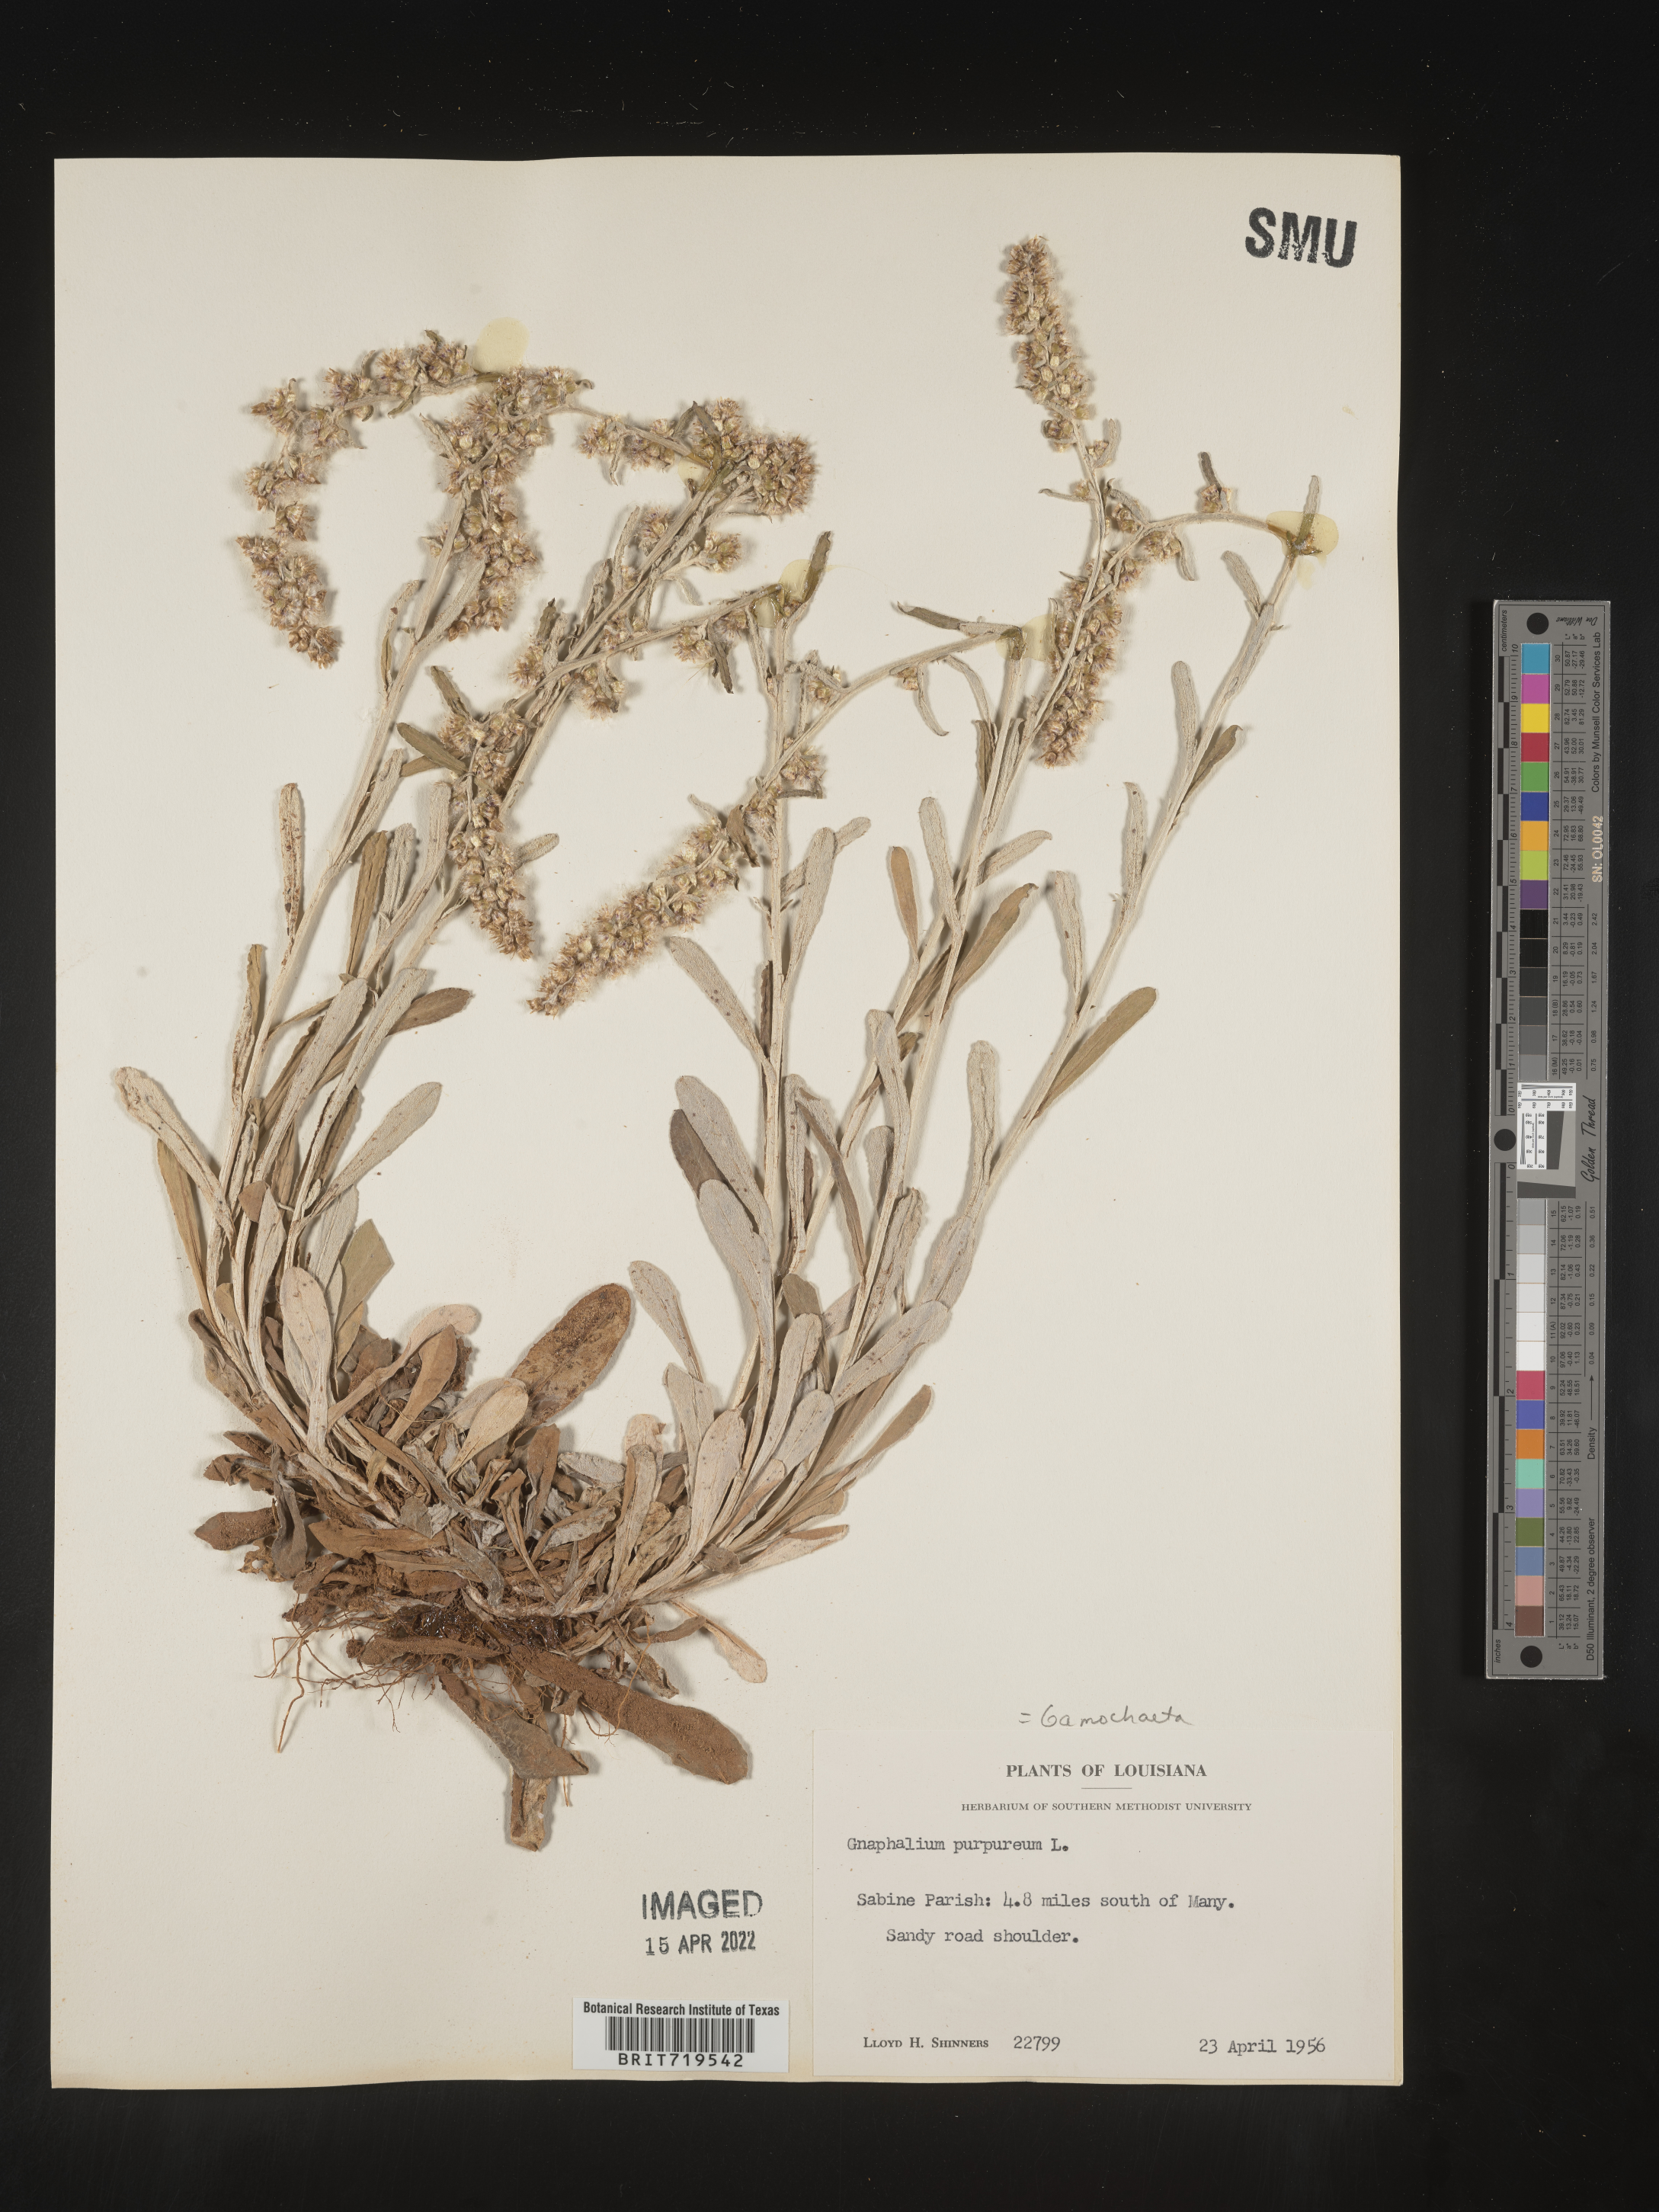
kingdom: Plantae
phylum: Tracheophyta
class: Magnoliopsida
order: Asterales
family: Asteraceae
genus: Gamochaeta
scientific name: Gamochaeta argyrinea
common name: Silvery cudweed
